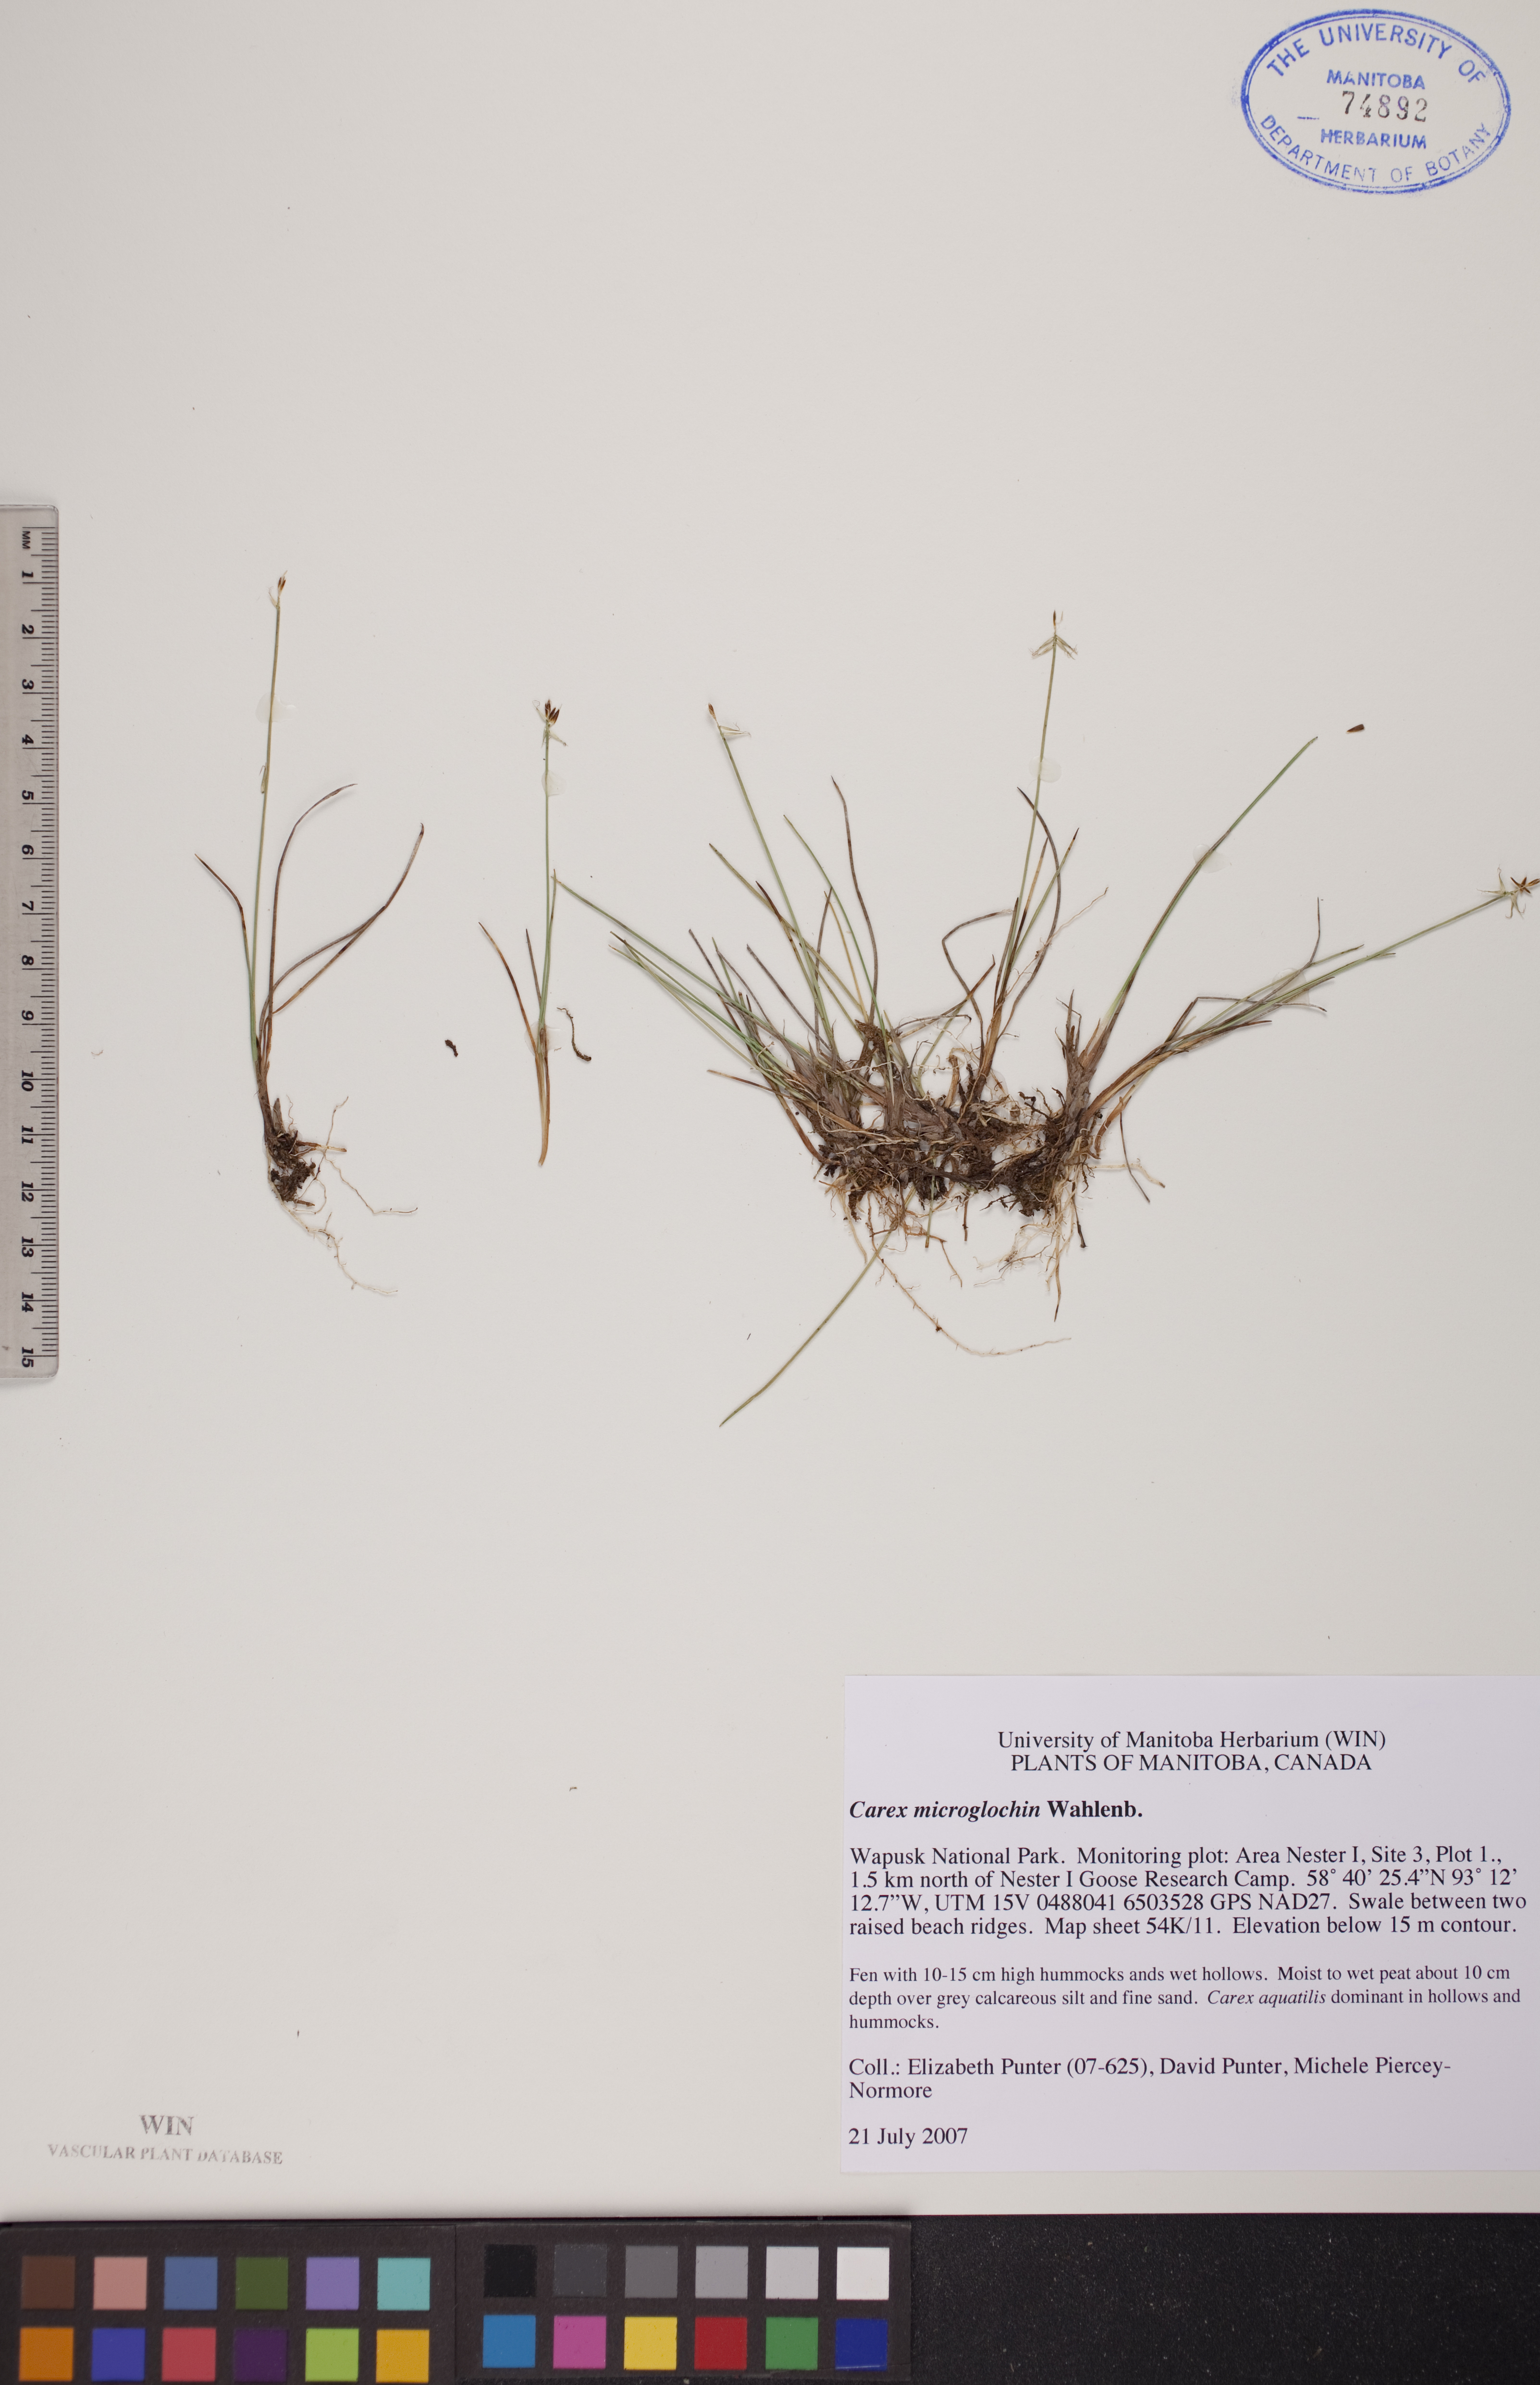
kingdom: Plantae
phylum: Tracheophyta
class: Liliopsida
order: Poales
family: Cyperaceae
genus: Carex
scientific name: Carex microglochin
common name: Bristle sedge
